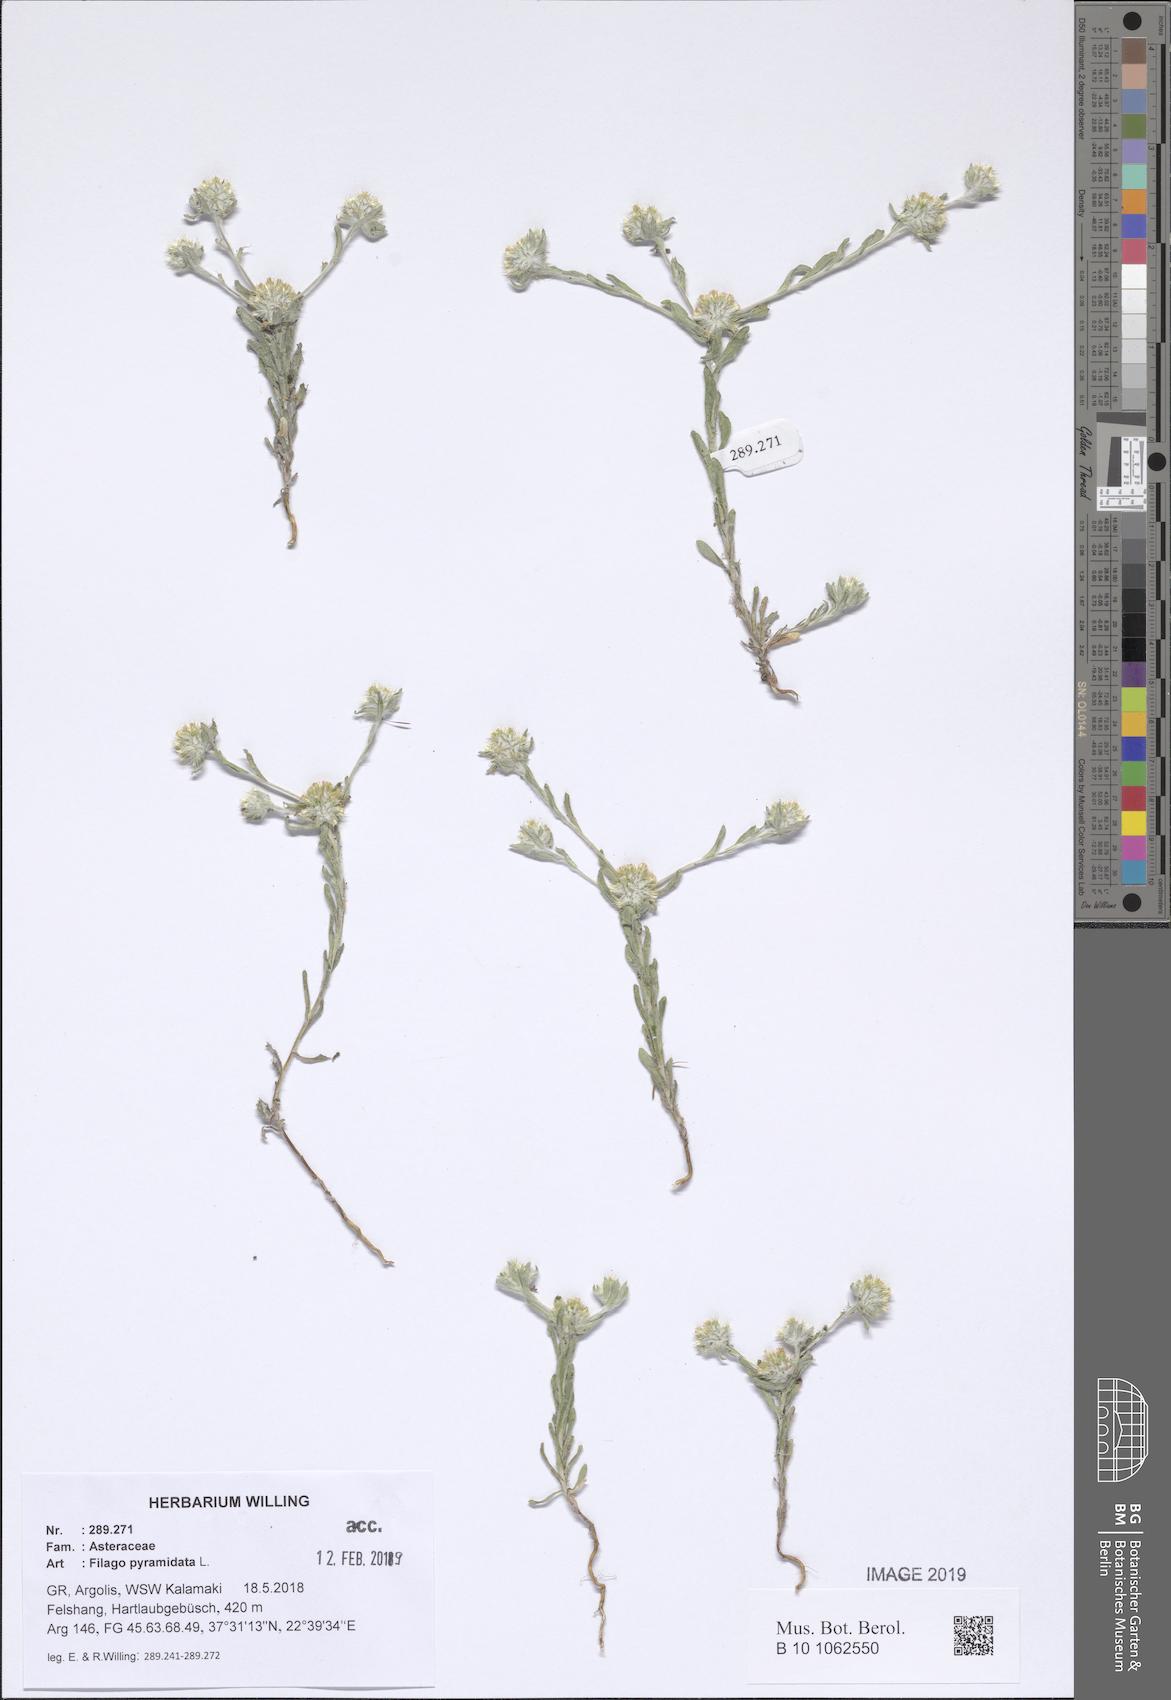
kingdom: Plantae
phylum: Tracheophyta
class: Magnoliopsida
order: Asterales
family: Asteraceae
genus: Filago
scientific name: Filago pyramidata
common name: Broad-leaved cudweed
